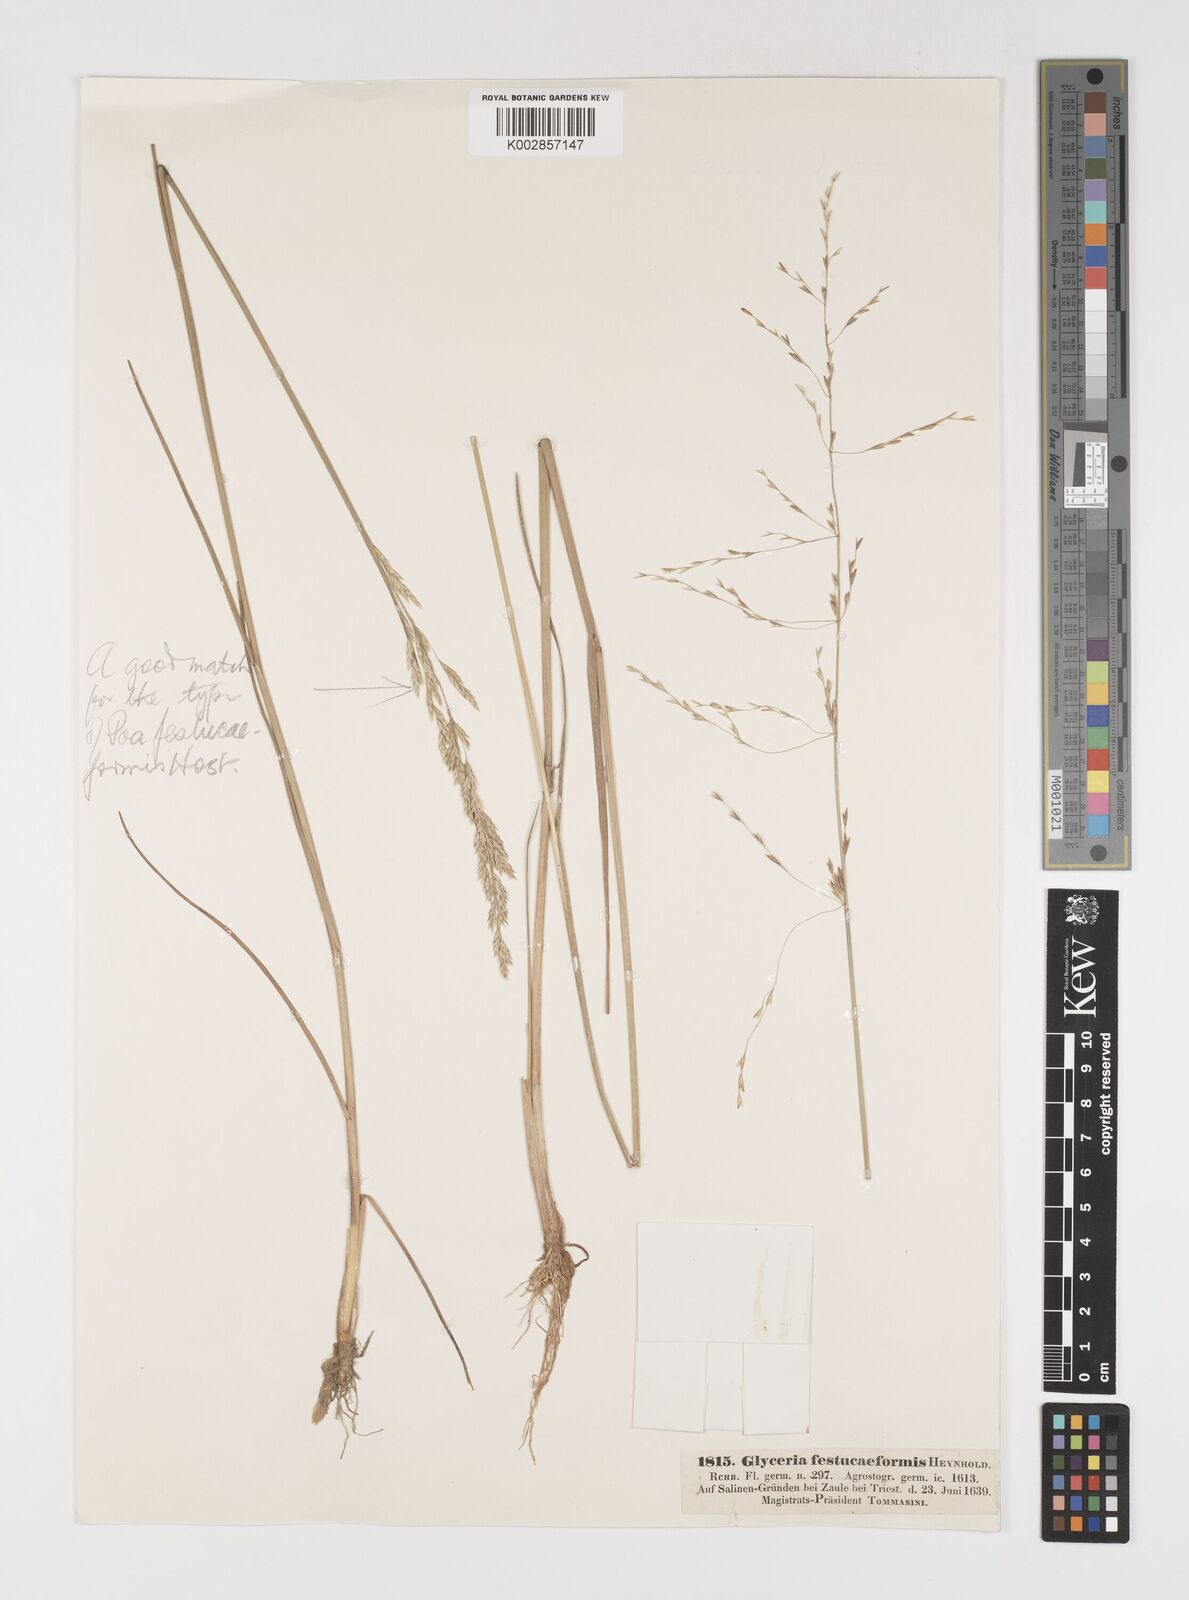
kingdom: Plantae
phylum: Tracheophyta
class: Liliopsida
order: Poales
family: Poaceae
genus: Puccinellia
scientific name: Puccinellia festuciformis
